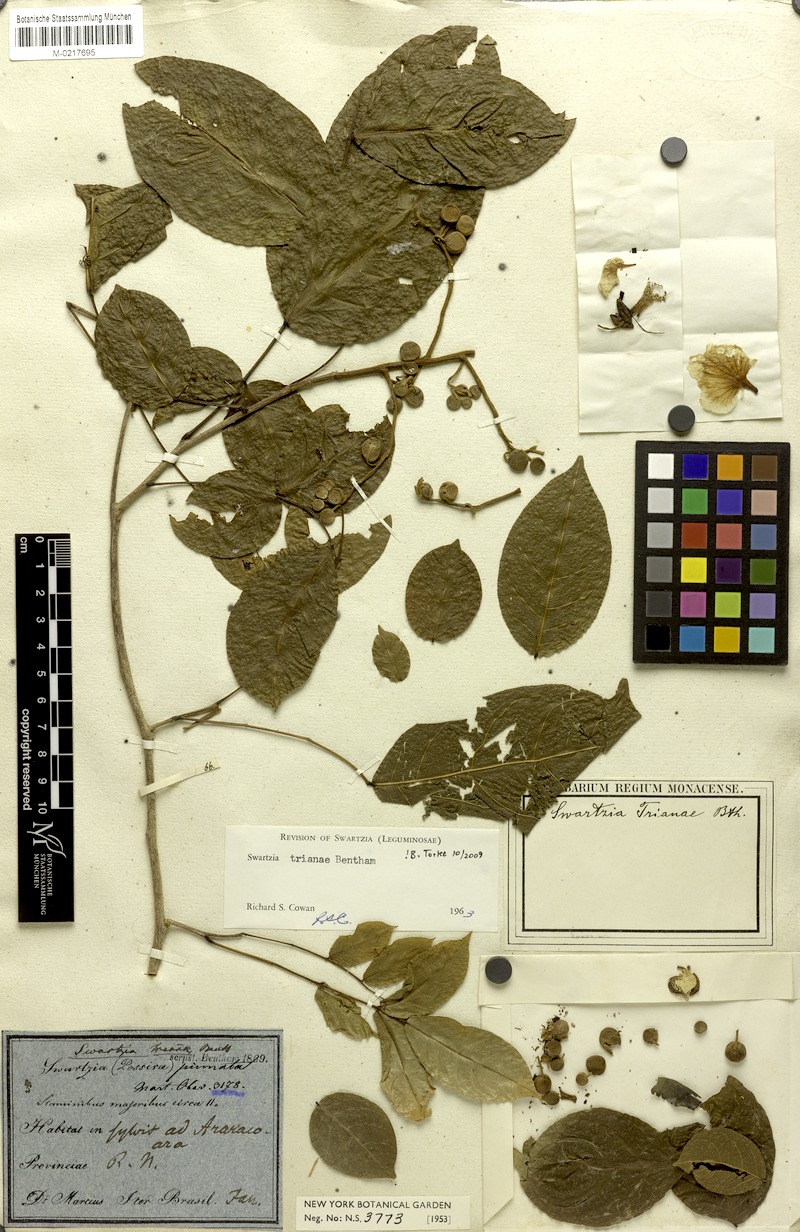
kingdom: Plantae
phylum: Tracheophyta
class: Magnoliopsida
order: Fabales
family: Fabaceae
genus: Swartzia
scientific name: Swartzia trianae
